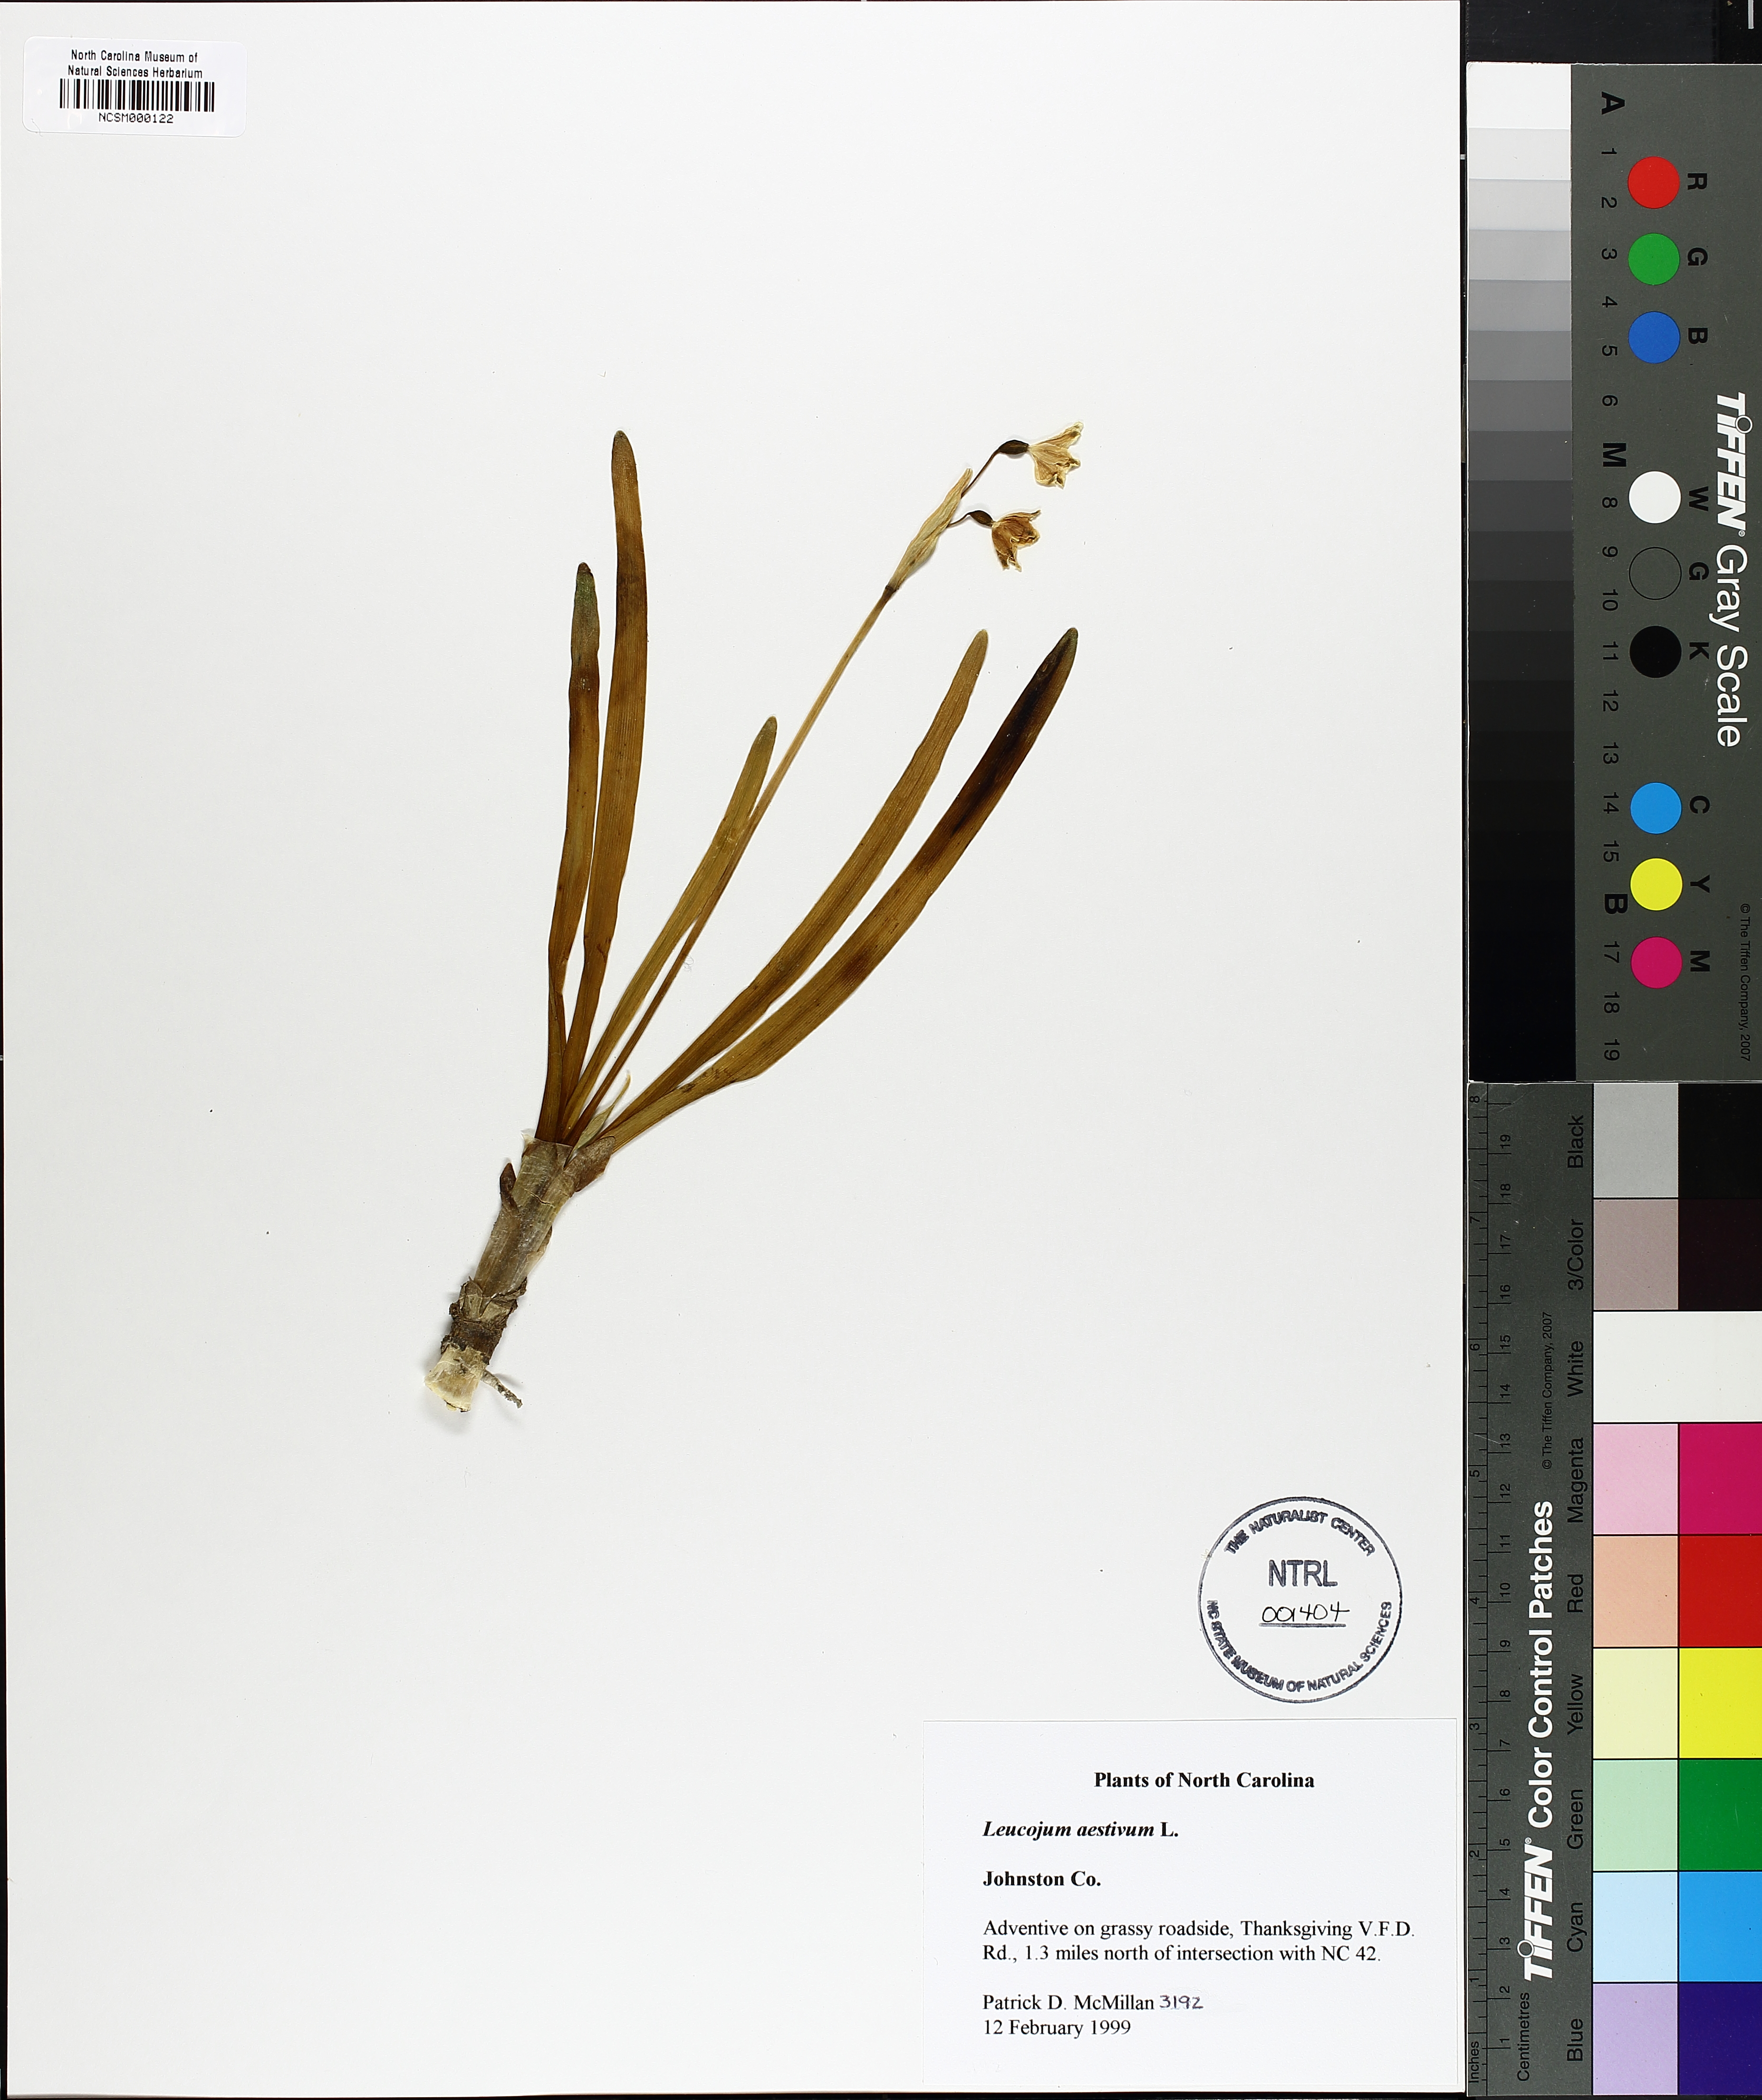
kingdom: Plantae
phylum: Tracheophyta
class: Liliopsida
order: Asparagales
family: Amaryllidaceae
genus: Leucojum
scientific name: Leucojum aestivum
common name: Summer snowflake
